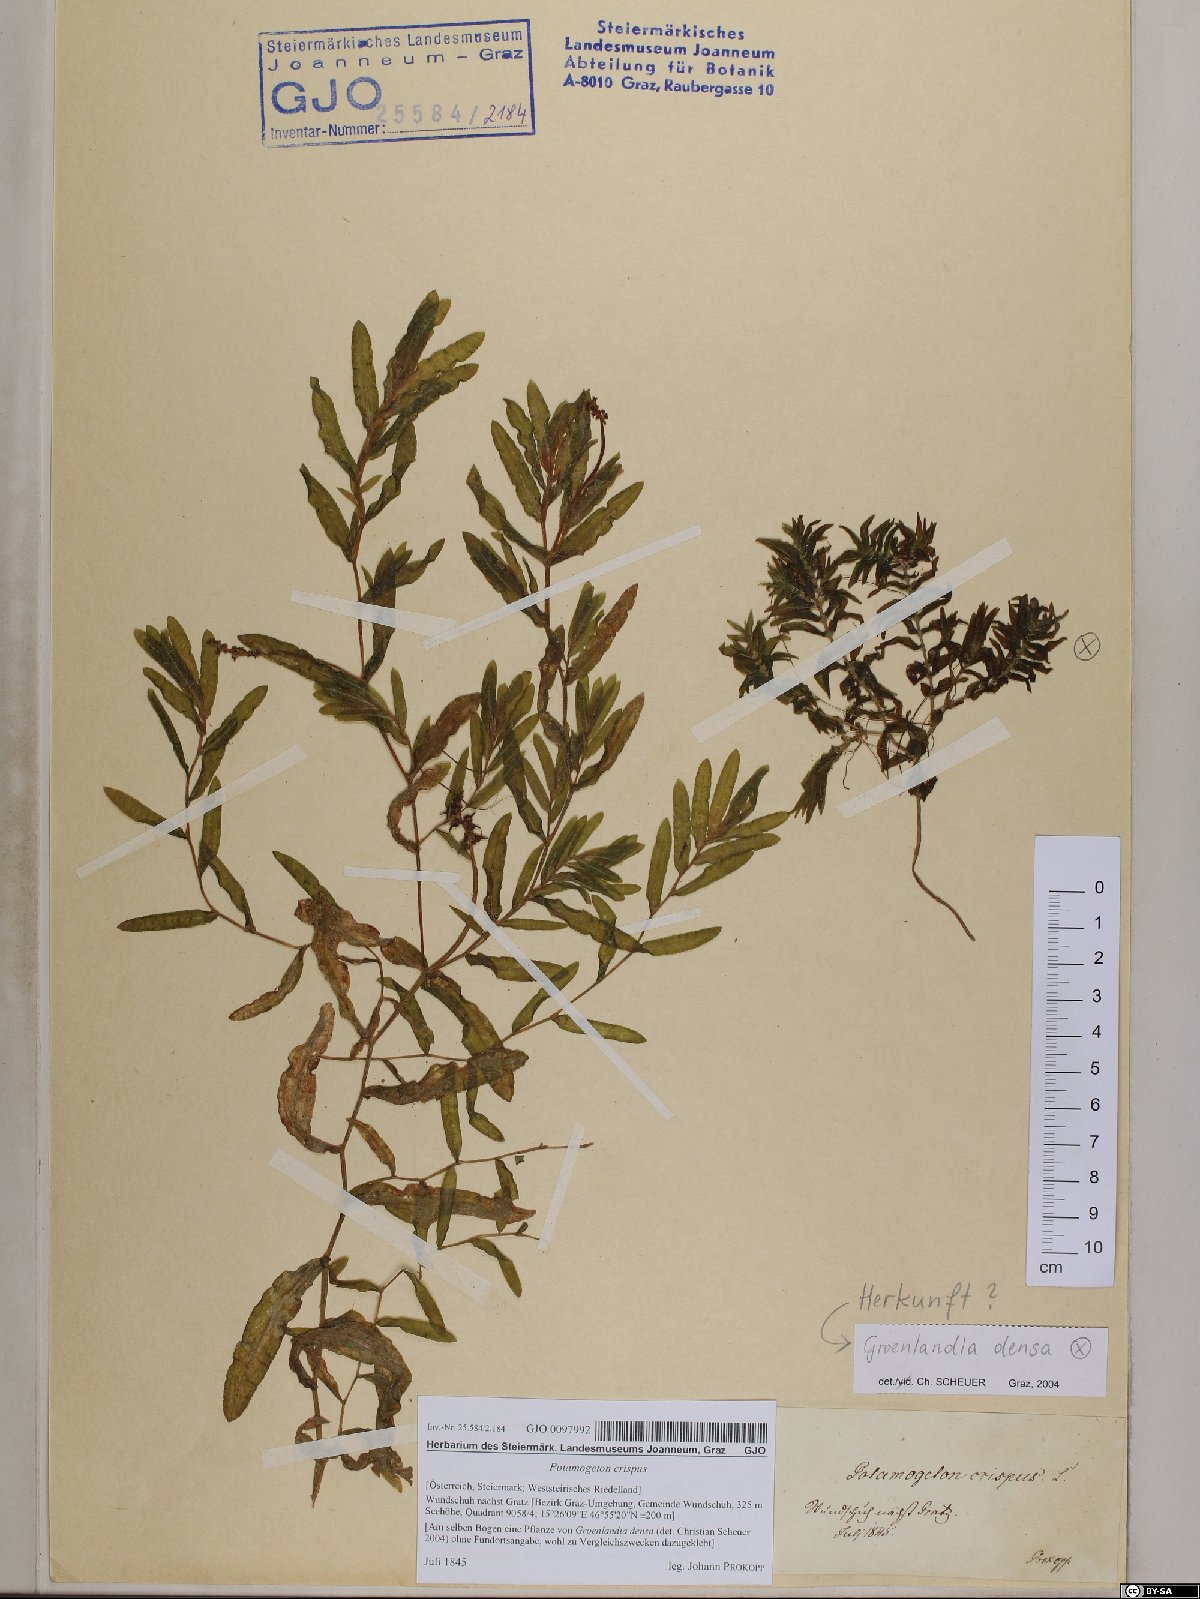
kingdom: Plantae
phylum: Tracheophyta
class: Liliopsida
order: Alismatales
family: Potamogetonaceae
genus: Potamogeton
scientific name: Potamogeton crispus
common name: Curled pondweed
